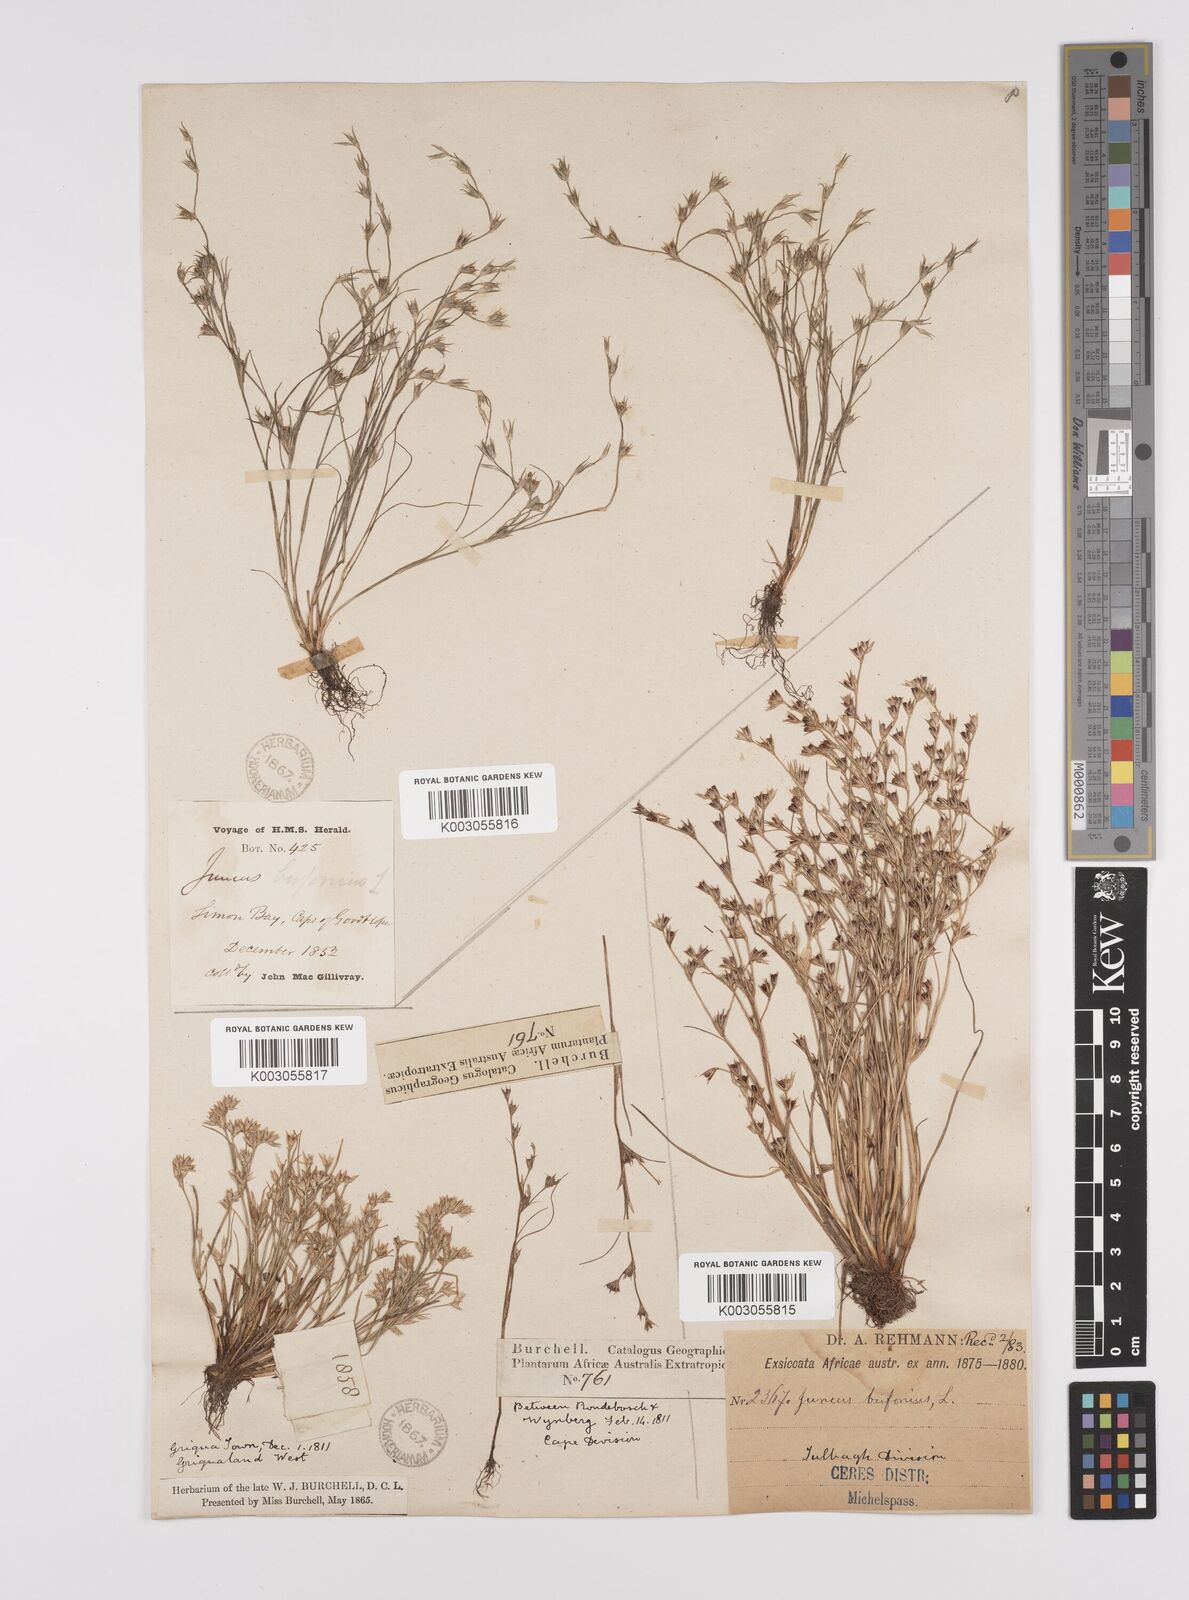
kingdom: Plantae
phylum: Tracheophyta
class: Liliopsida
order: Poales
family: Juncaceae
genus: Juncus
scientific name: Juncus bufonius
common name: Toad rush
